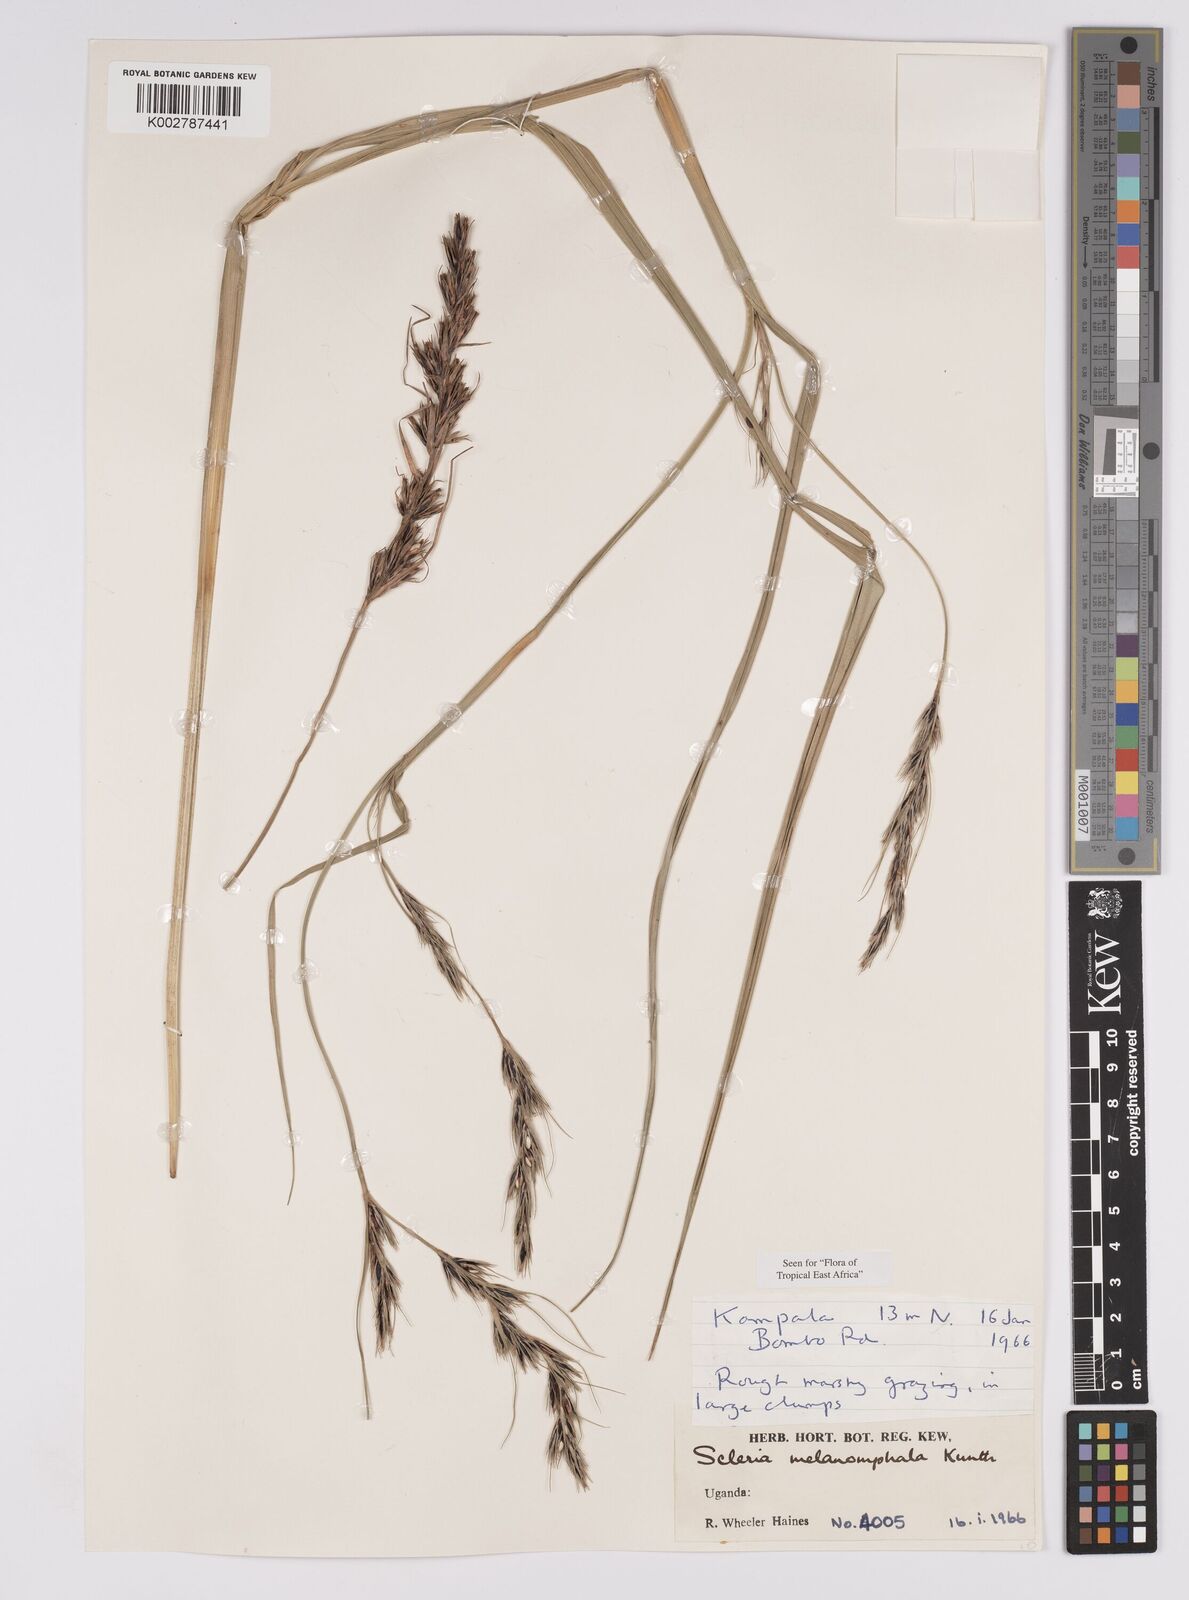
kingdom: Plantae
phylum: Tracheophyta
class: Liliopsida
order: Poales
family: Cyperaceae
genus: Scleria
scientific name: Scleria melanomphala
